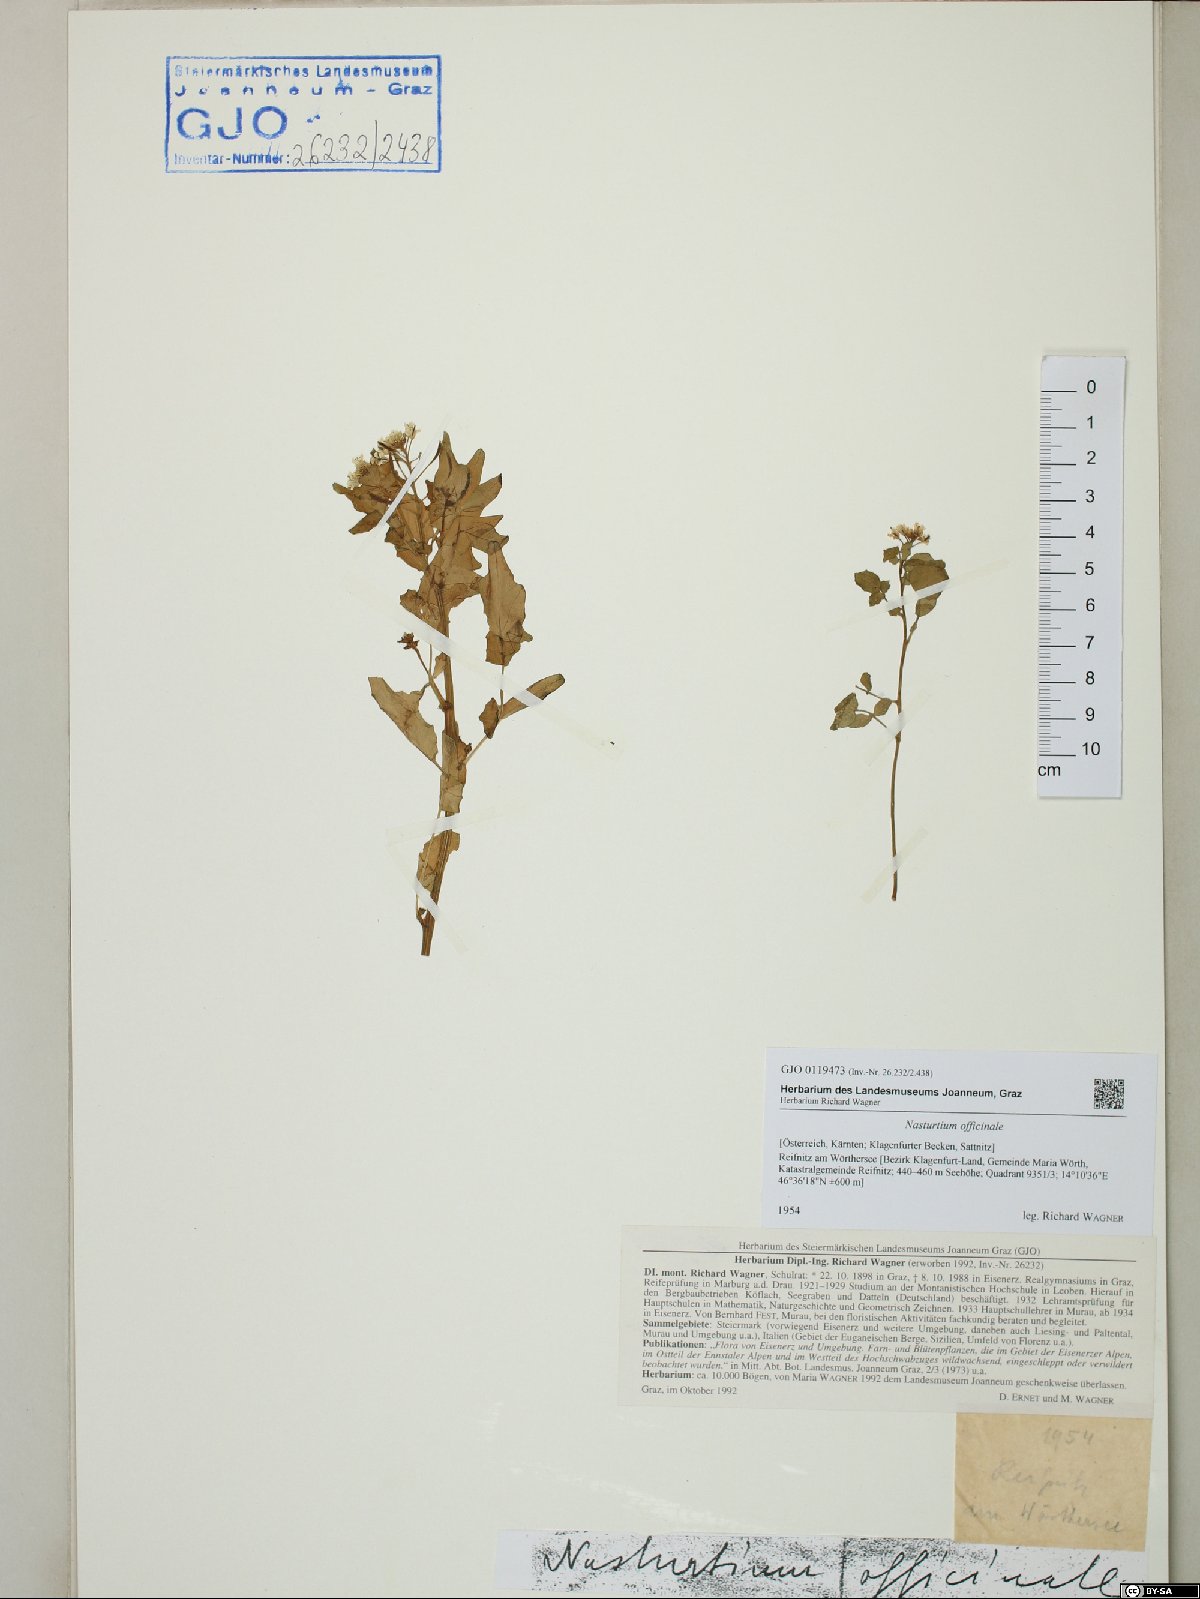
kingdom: Plantae
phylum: Tracheophyta
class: Magnoliopsida
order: Brassicales
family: Brassicaceae
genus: Nasturtium
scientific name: Nasturtium officinale
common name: Watercress
